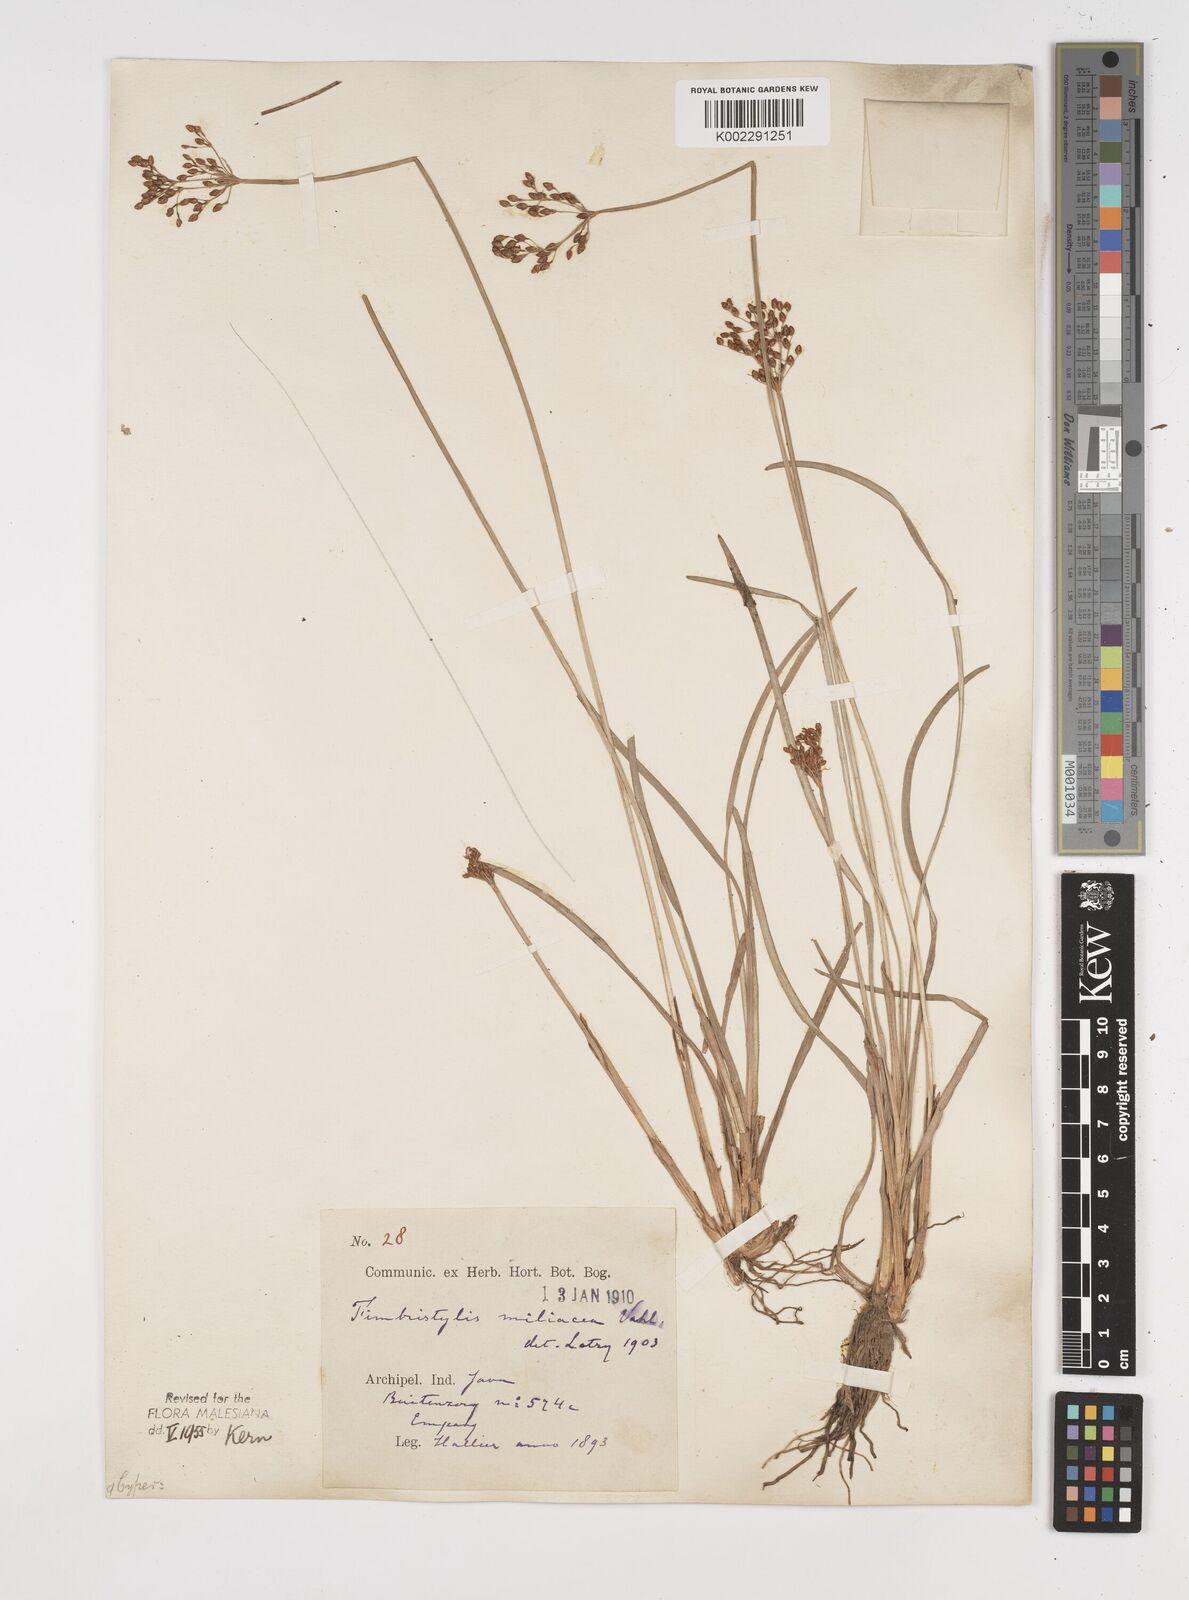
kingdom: Plantae
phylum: Tracheophyta
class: Liliopsida
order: Poales
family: Cyperaceae
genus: Fimbristylis
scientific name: Fimbristylis
